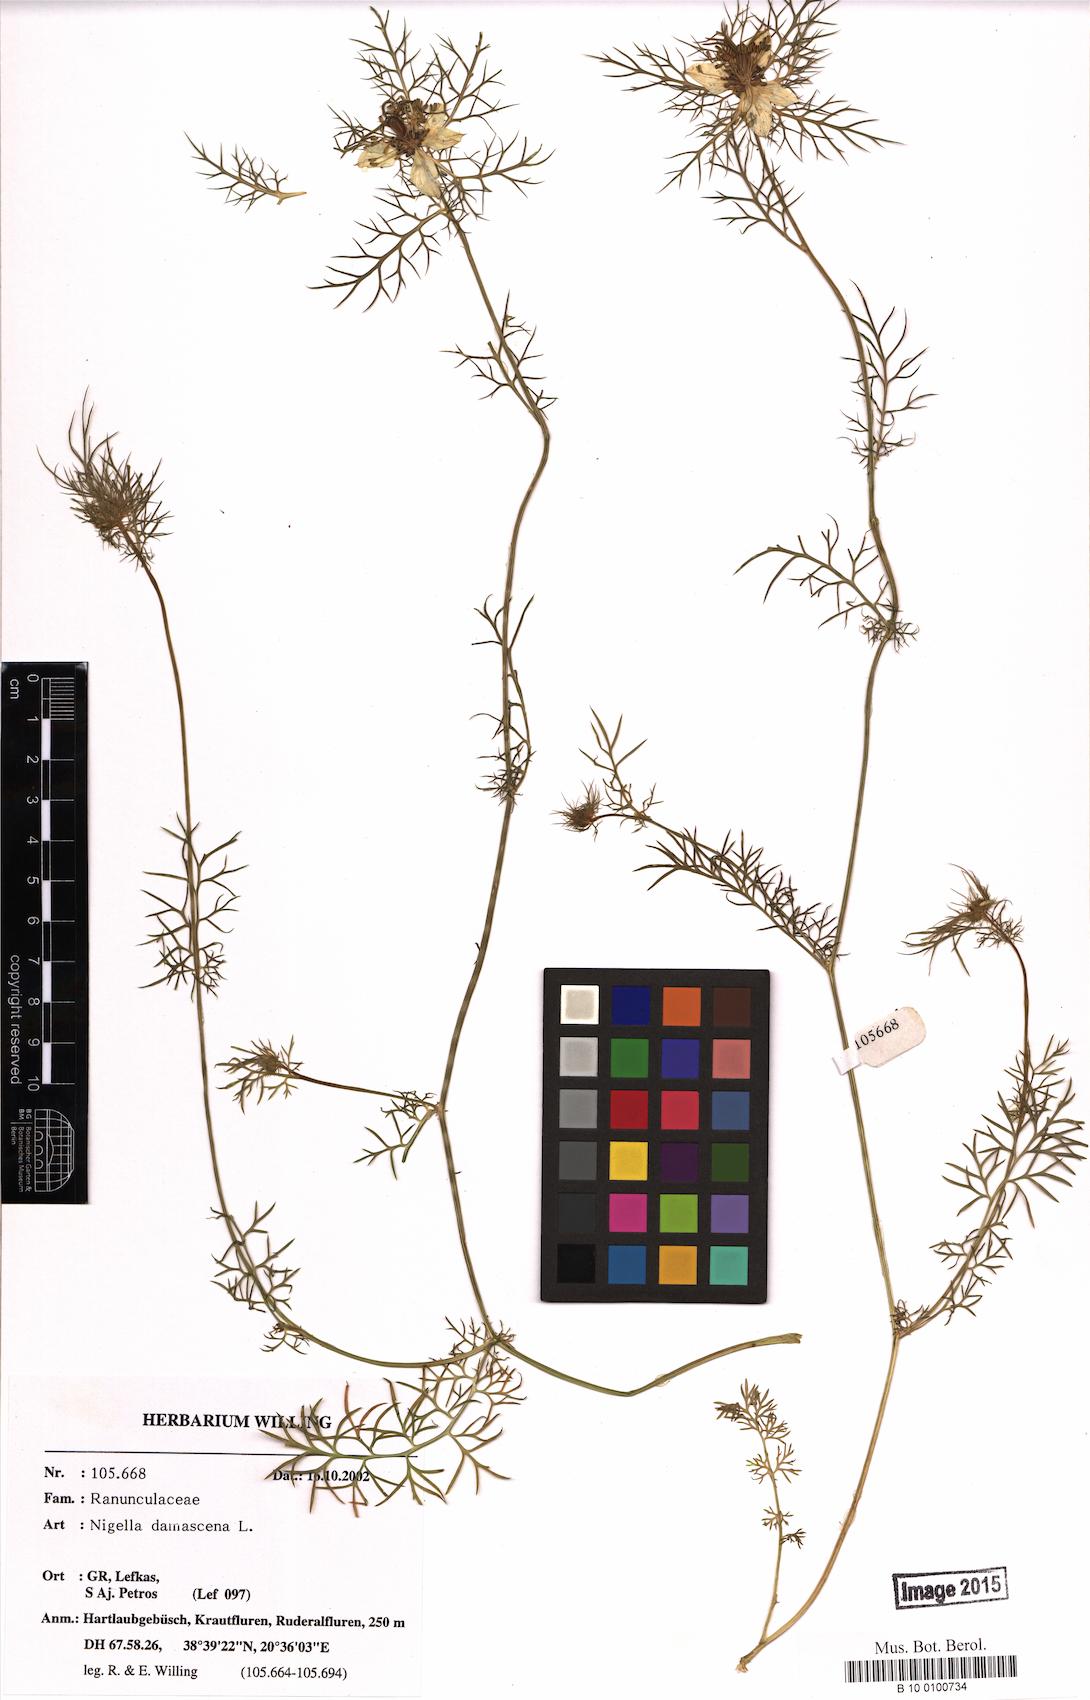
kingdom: Plantae
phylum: Tracheophyta
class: Magnoliopsida
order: Ranunculales
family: Ranunculaceae
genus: Nigella
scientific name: Nigella damascena
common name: Love-in-a-mist
